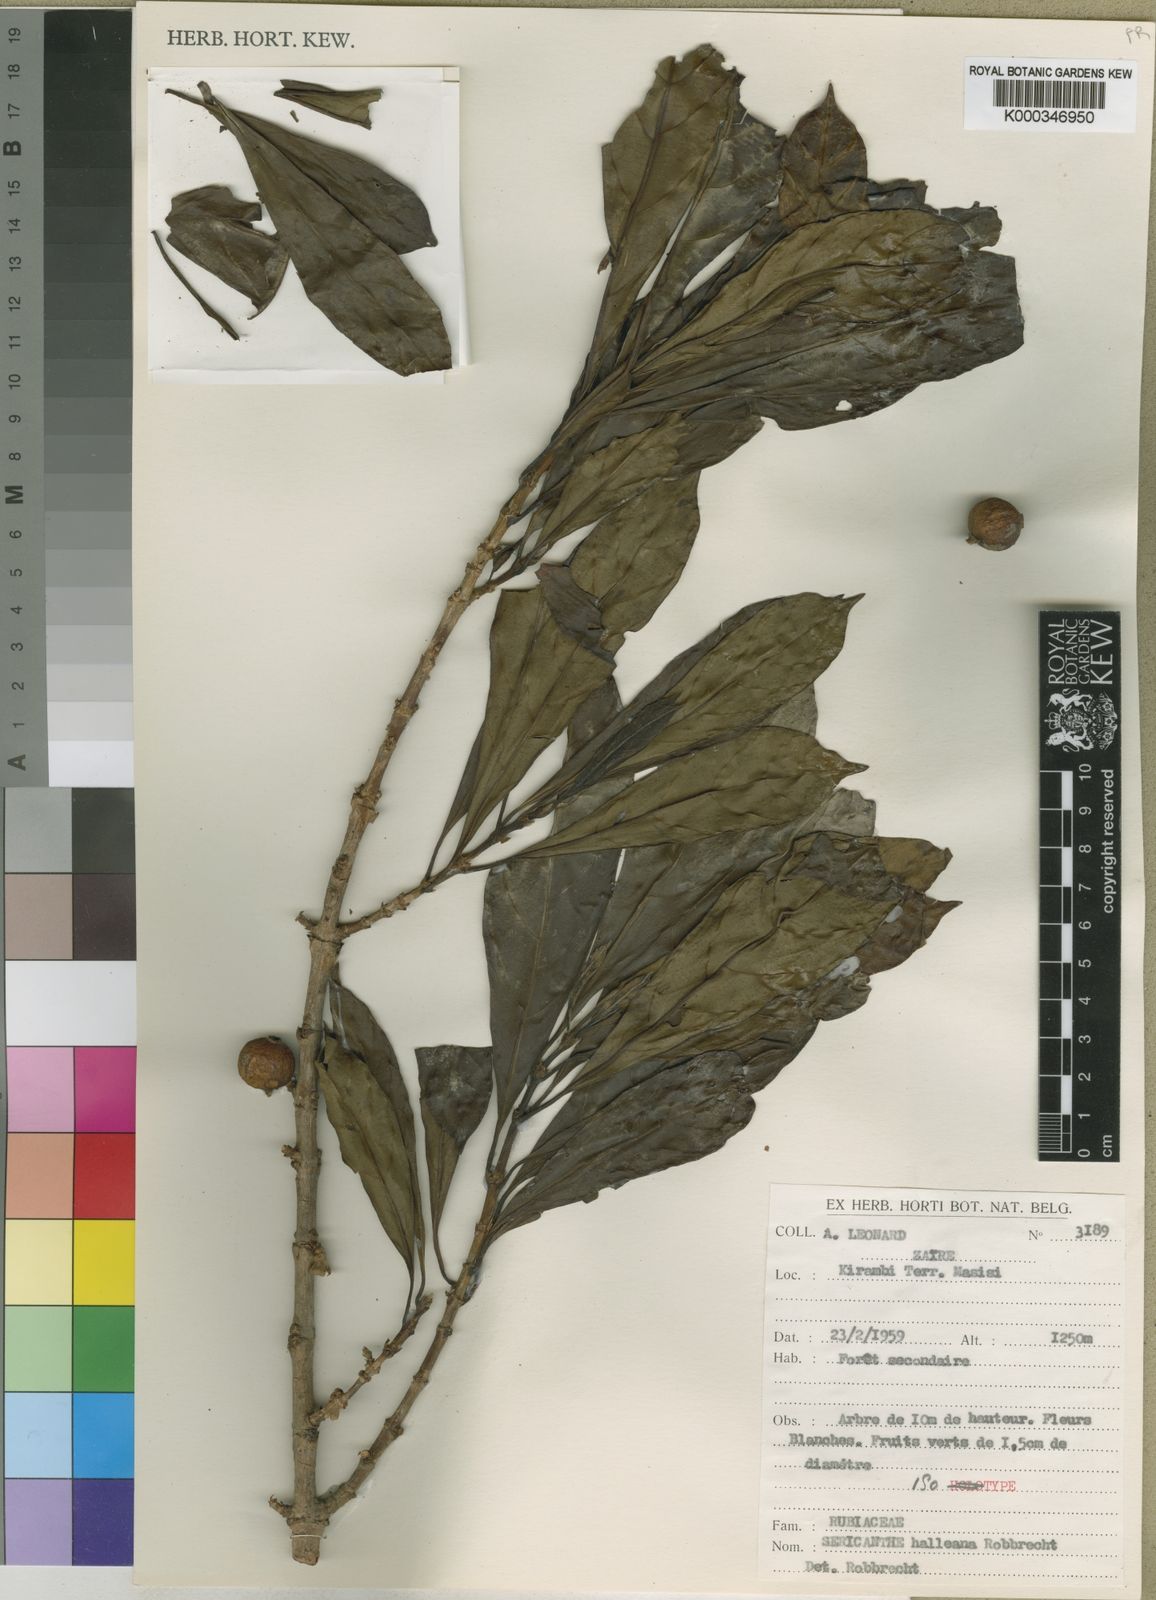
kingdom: Plantae
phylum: Tracheophyta
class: Magnoliopsida
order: Gentianales
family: Rubiaceae
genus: Sericanthe
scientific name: Sericanthe halleana
